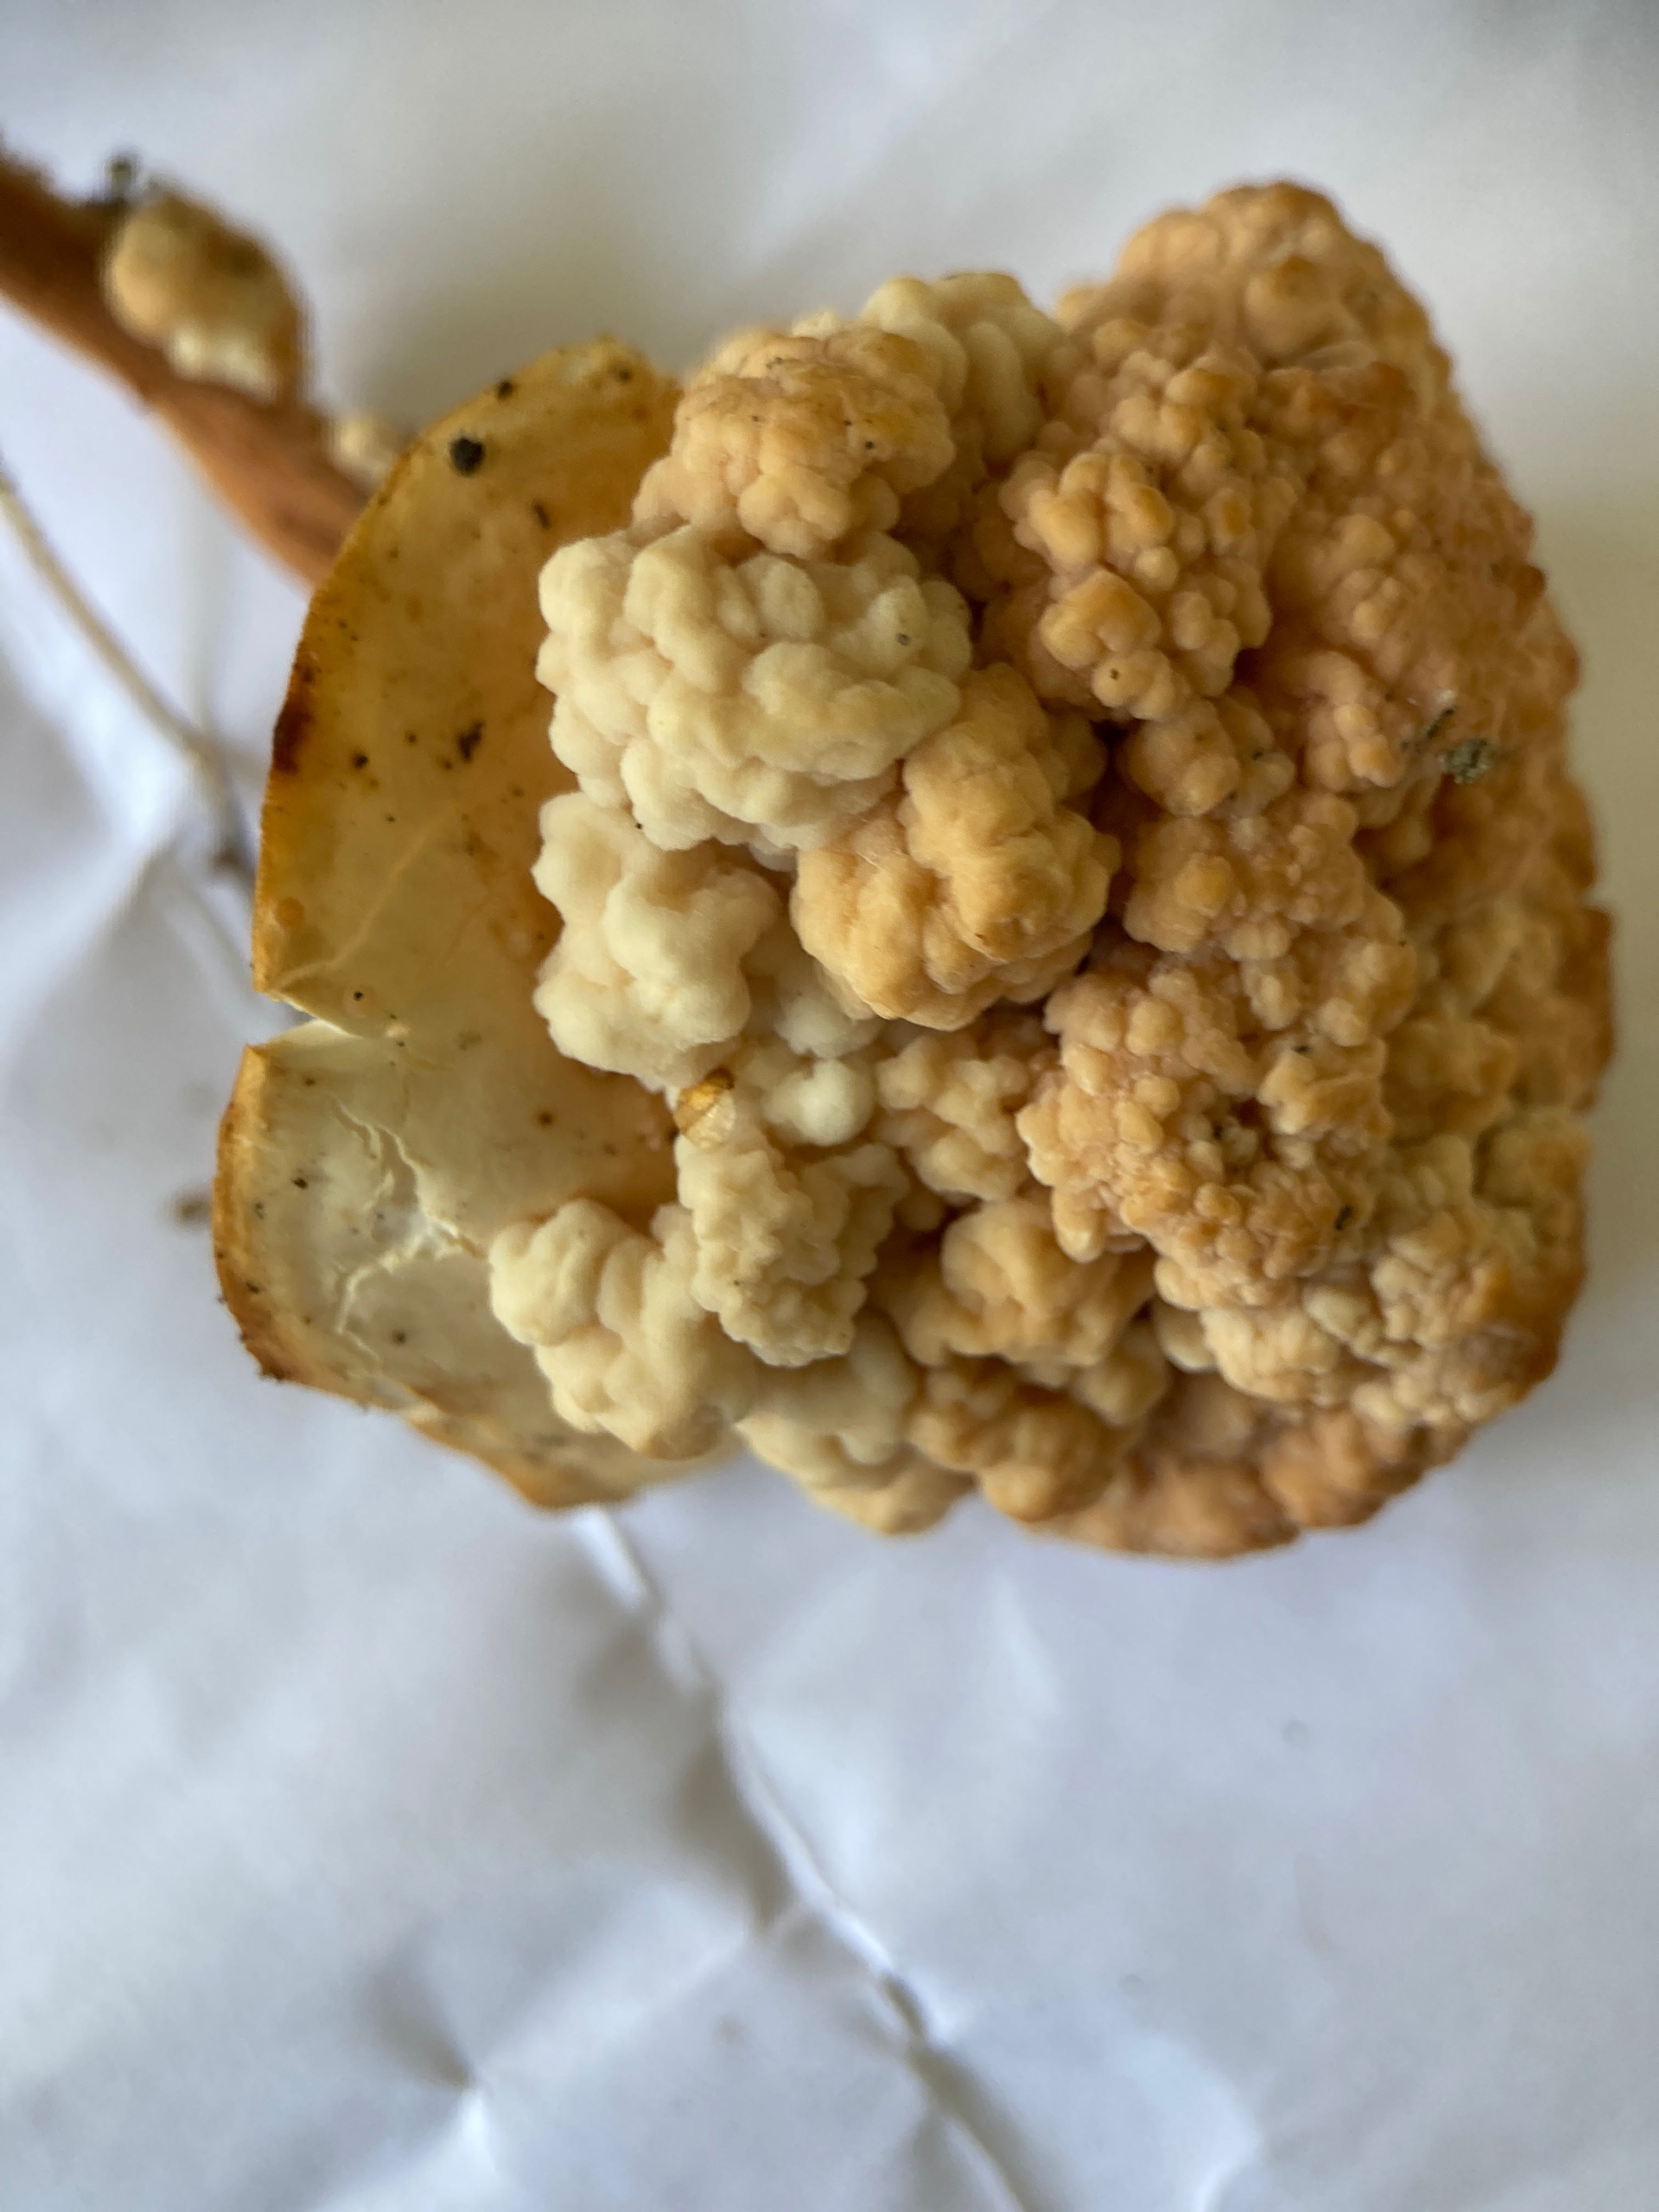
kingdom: Fungi
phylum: Basidiomycota
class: Tremellomycetes
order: Filobasidiales
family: Filobasidiaceae
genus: Syzygospora
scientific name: Syzygospora tumefaciens
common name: fladhatte-snyltehjerne
